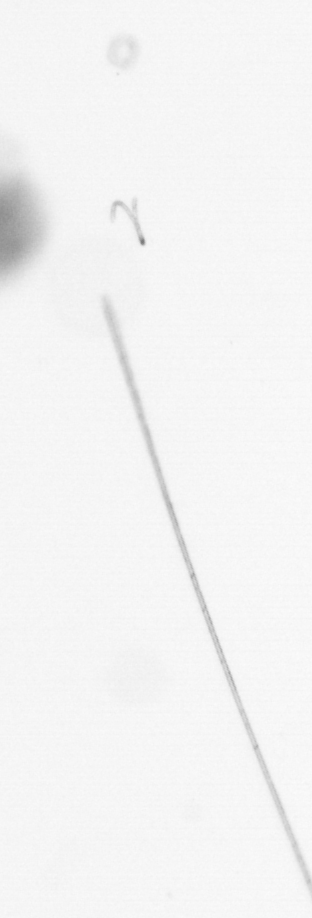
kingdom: Chromista
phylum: Ochrophyta
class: Bacillariophyceae
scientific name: Bacillariophyceae
